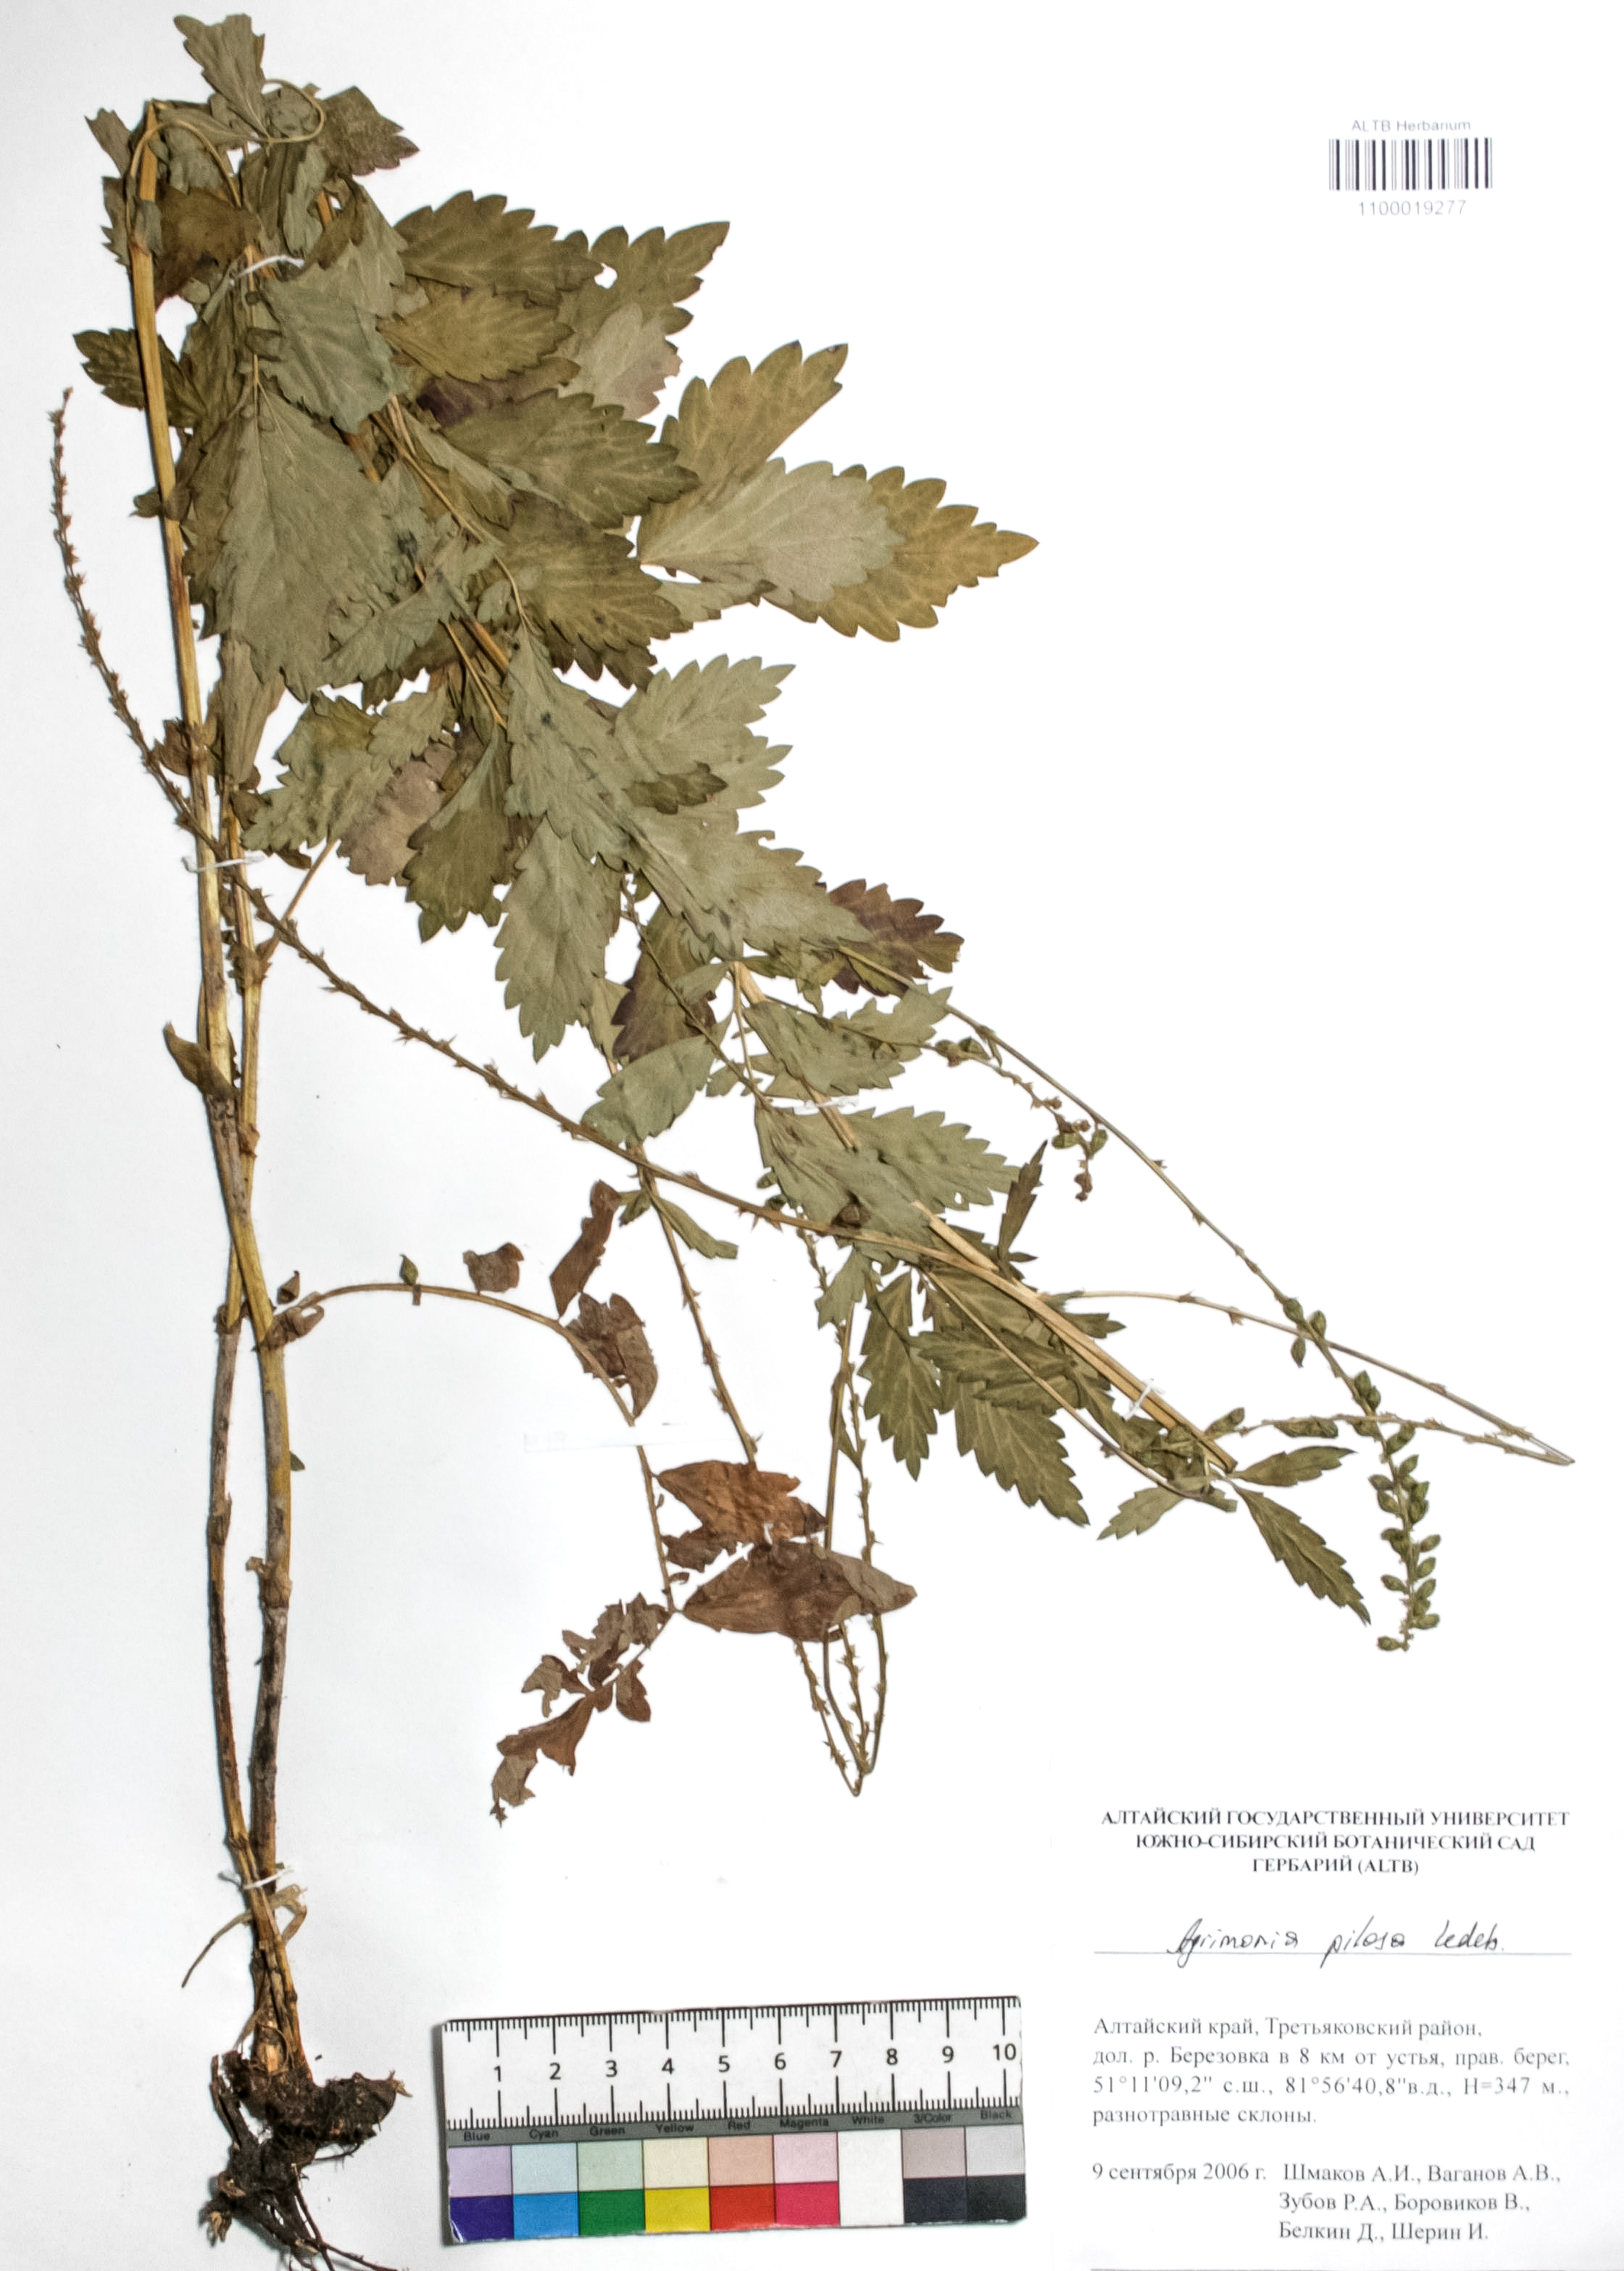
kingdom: Plantae
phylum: Tracheophyta
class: Magnoliopsida
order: Rosales
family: Rosaceae
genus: Agrimonia
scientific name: Agrimonia pilosa
